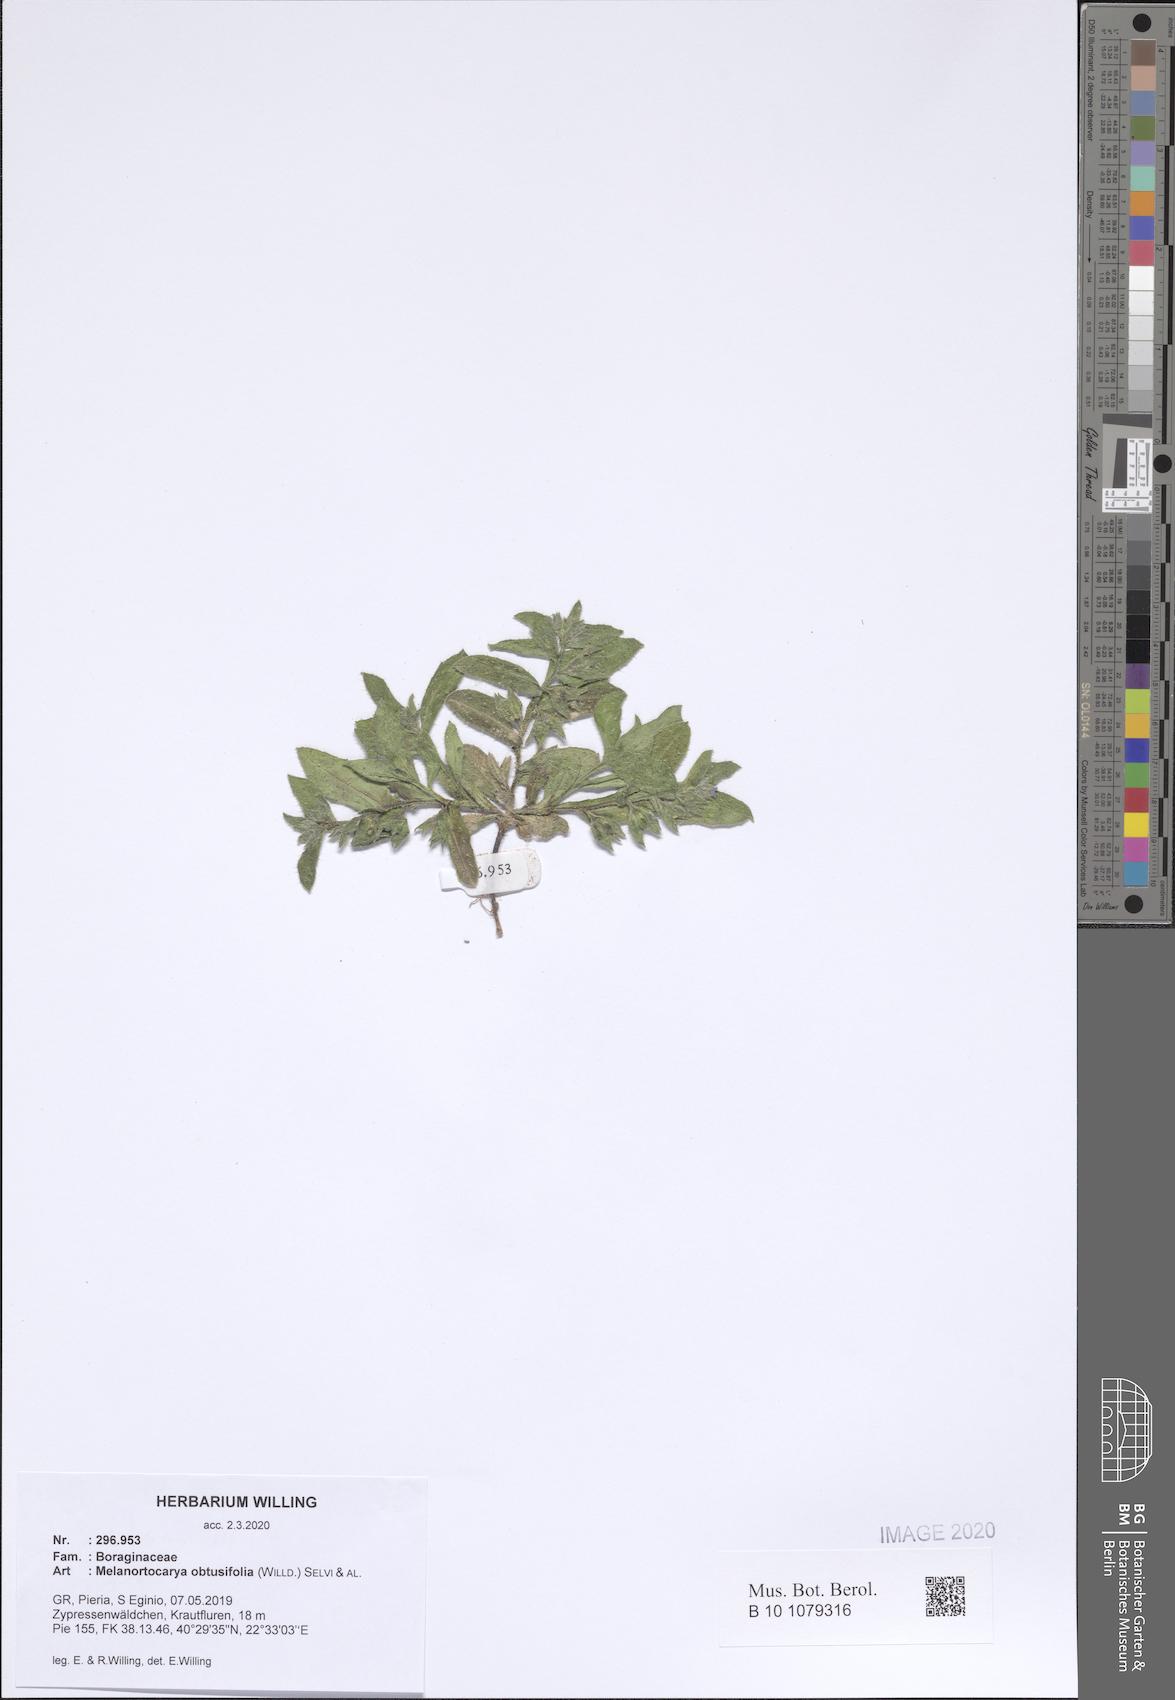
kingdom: Plantae
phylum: Tracheophyta
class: Magnoliopsida
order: Boraginales
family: Boraginaceae
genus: Melanortocarya
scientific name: Melanortocarya obtusifolia
